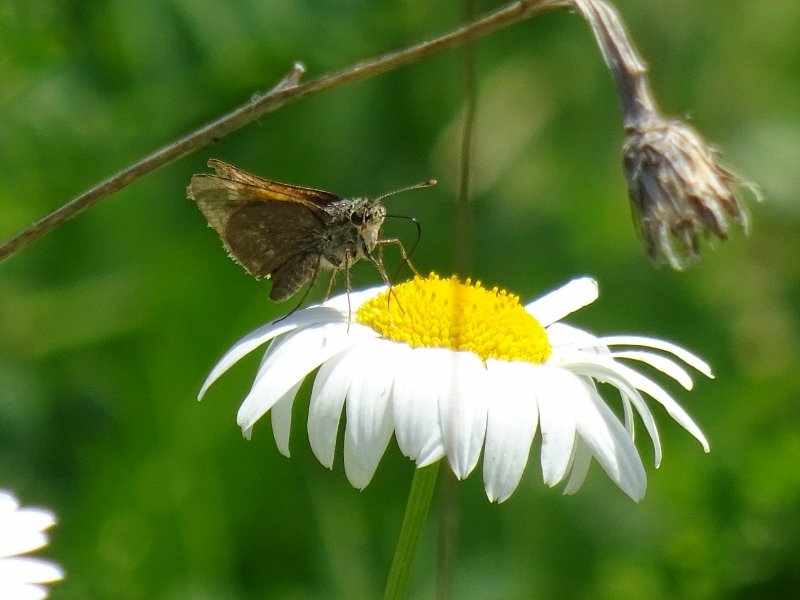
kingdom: Animalia
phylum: Arthropoda
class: Insecta
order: Lepidoptera
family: Hesperiidae
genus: Polites
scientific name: Polites themistocles
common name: Tawny-edged Skipper
